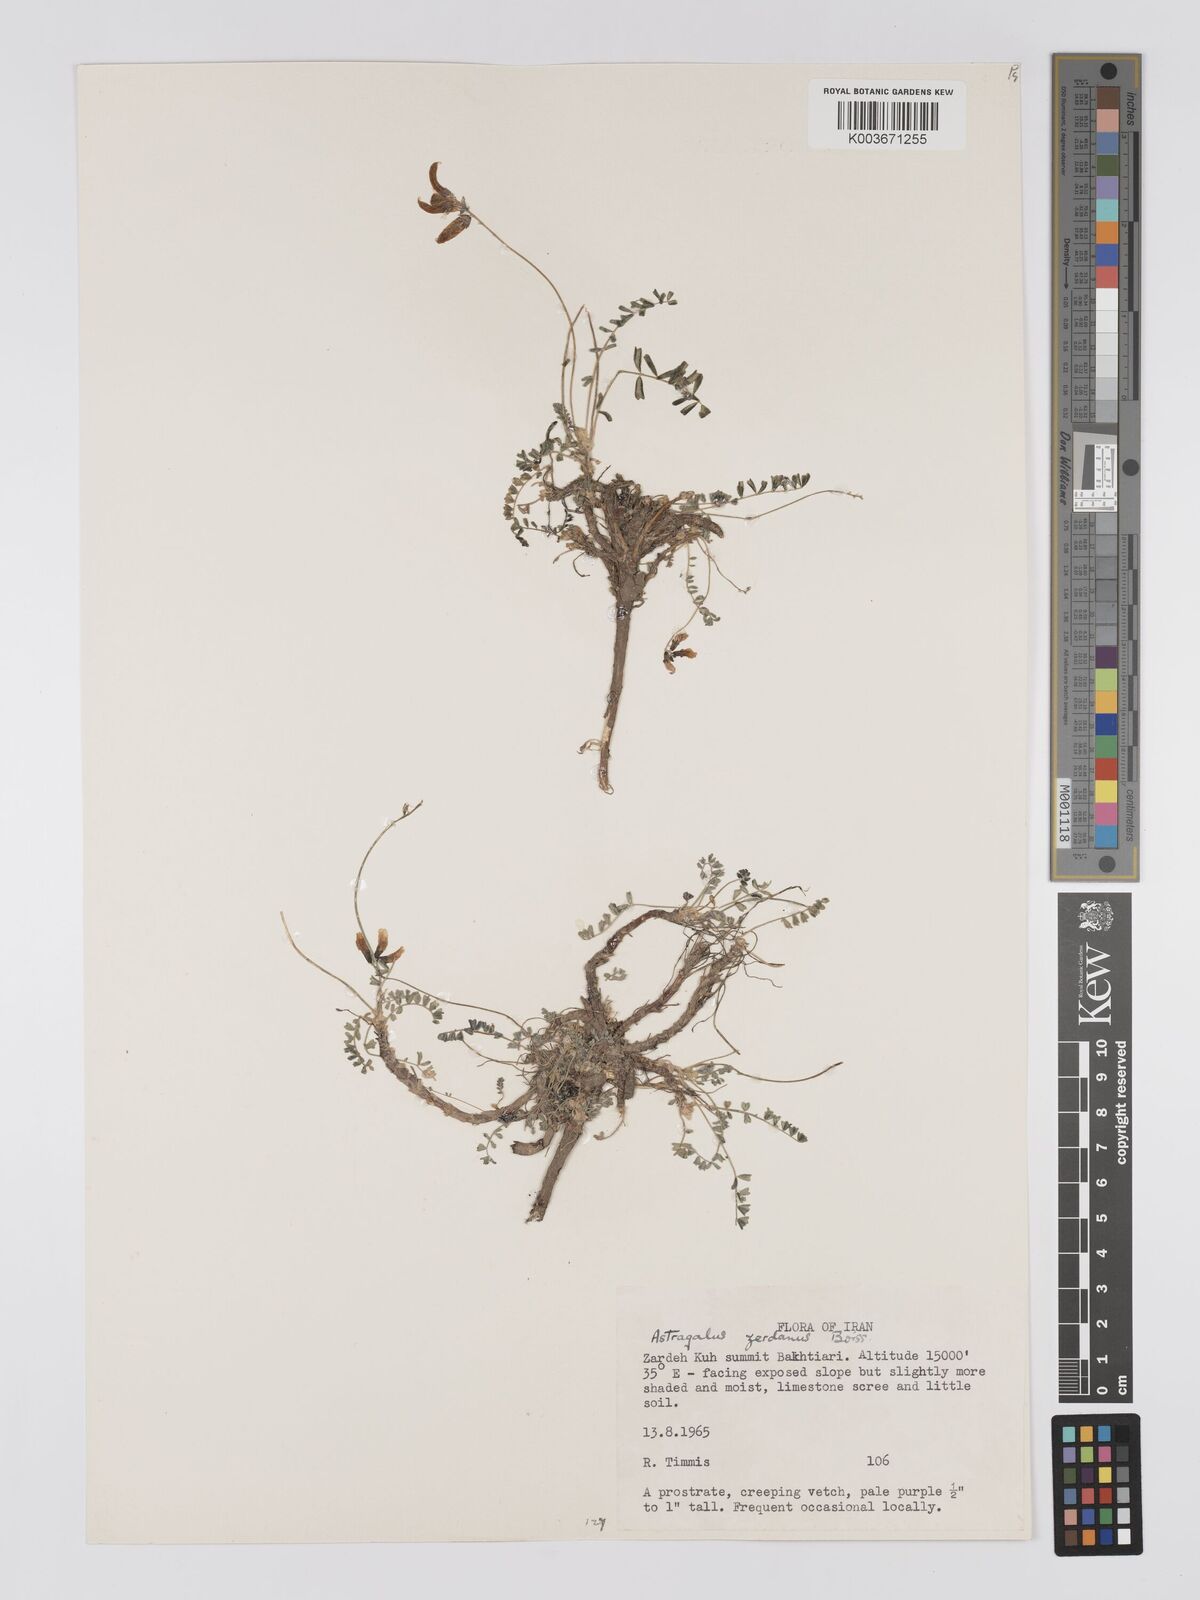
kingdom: Plantae
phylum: Tracheophyta
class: Magnoliopsida
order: Fabales
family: Fabaceae
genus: Astragalus
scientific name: Astragalus zerdanus
